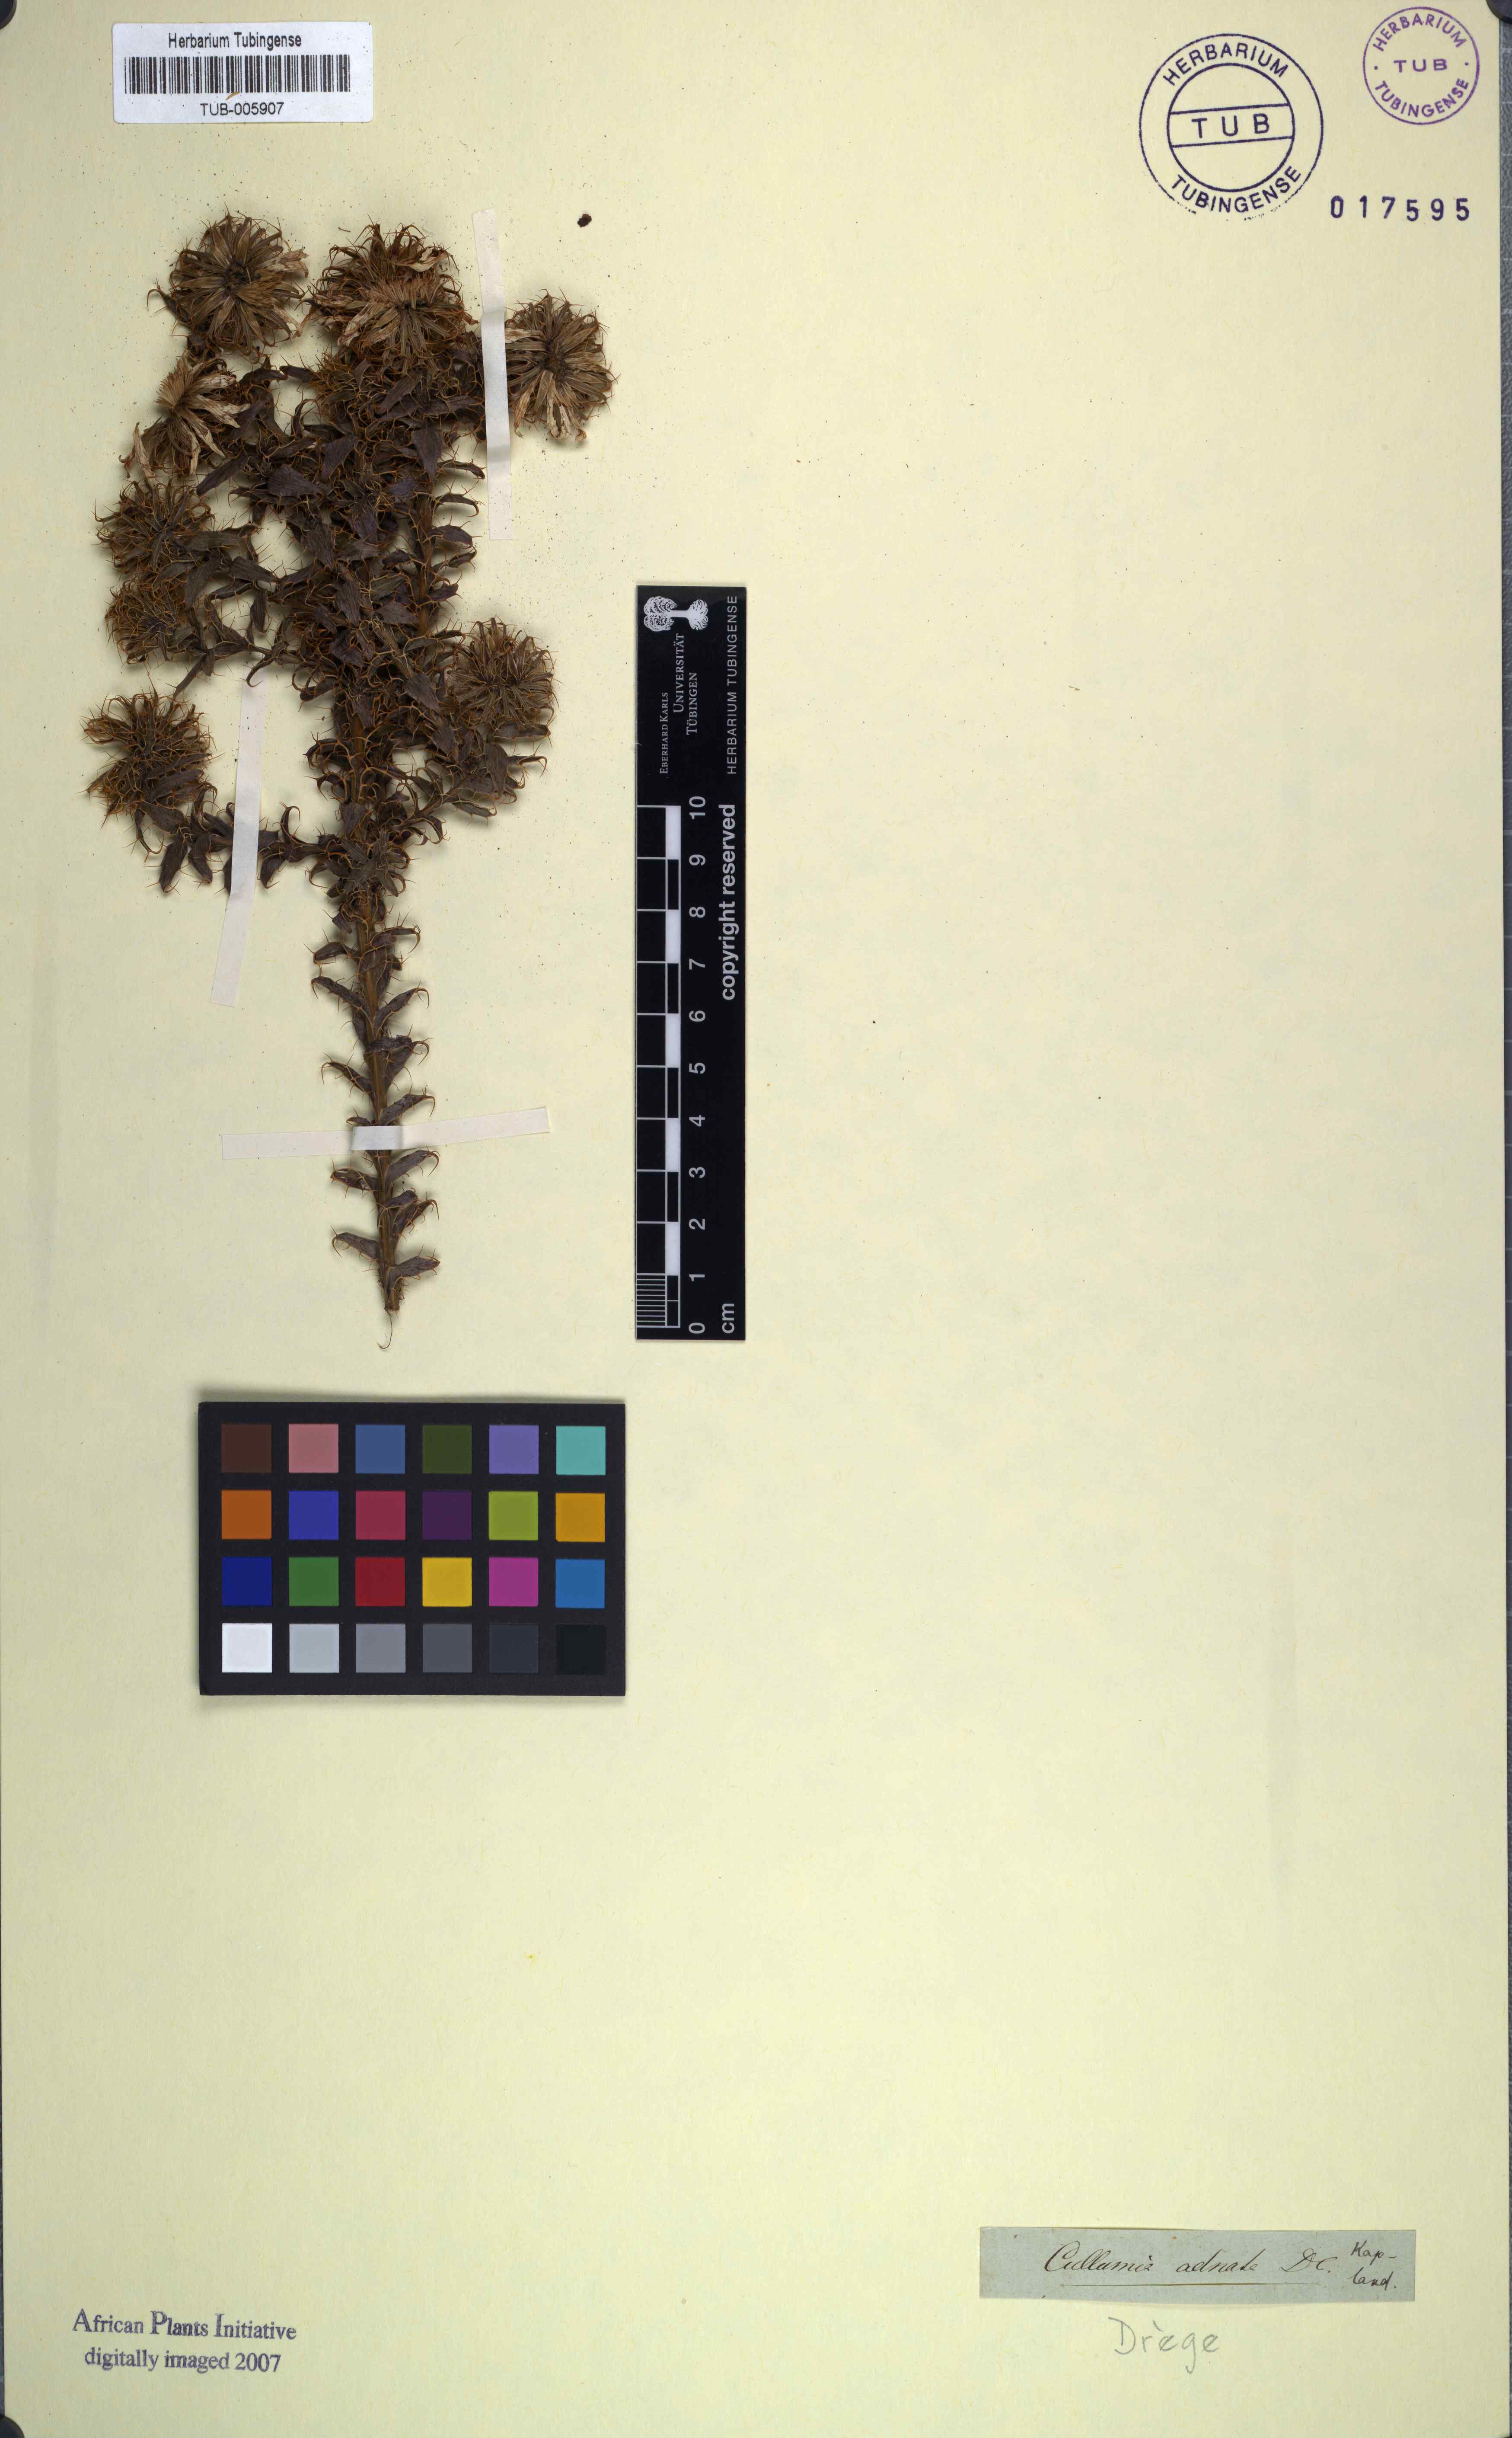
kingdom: Plantae
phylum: Tracheophyta
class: Magnoliopsida
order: Asterales
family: Asteraceae
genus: Cullumia
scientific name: Cullumia setosa
